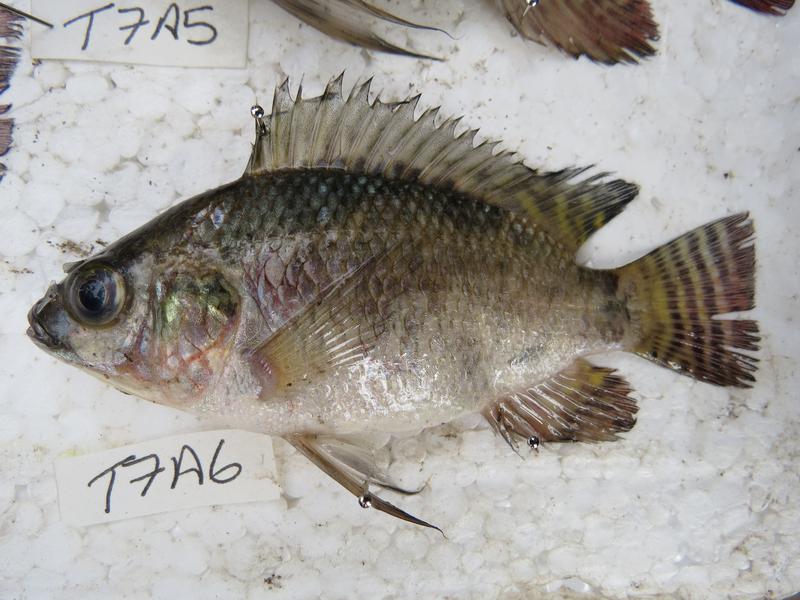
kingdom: Animalia
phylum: Chordata
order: Perciformes
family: Cichlidae
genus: Oreochromis
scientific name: Oreochromis niloticus
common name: Nile tilapia
